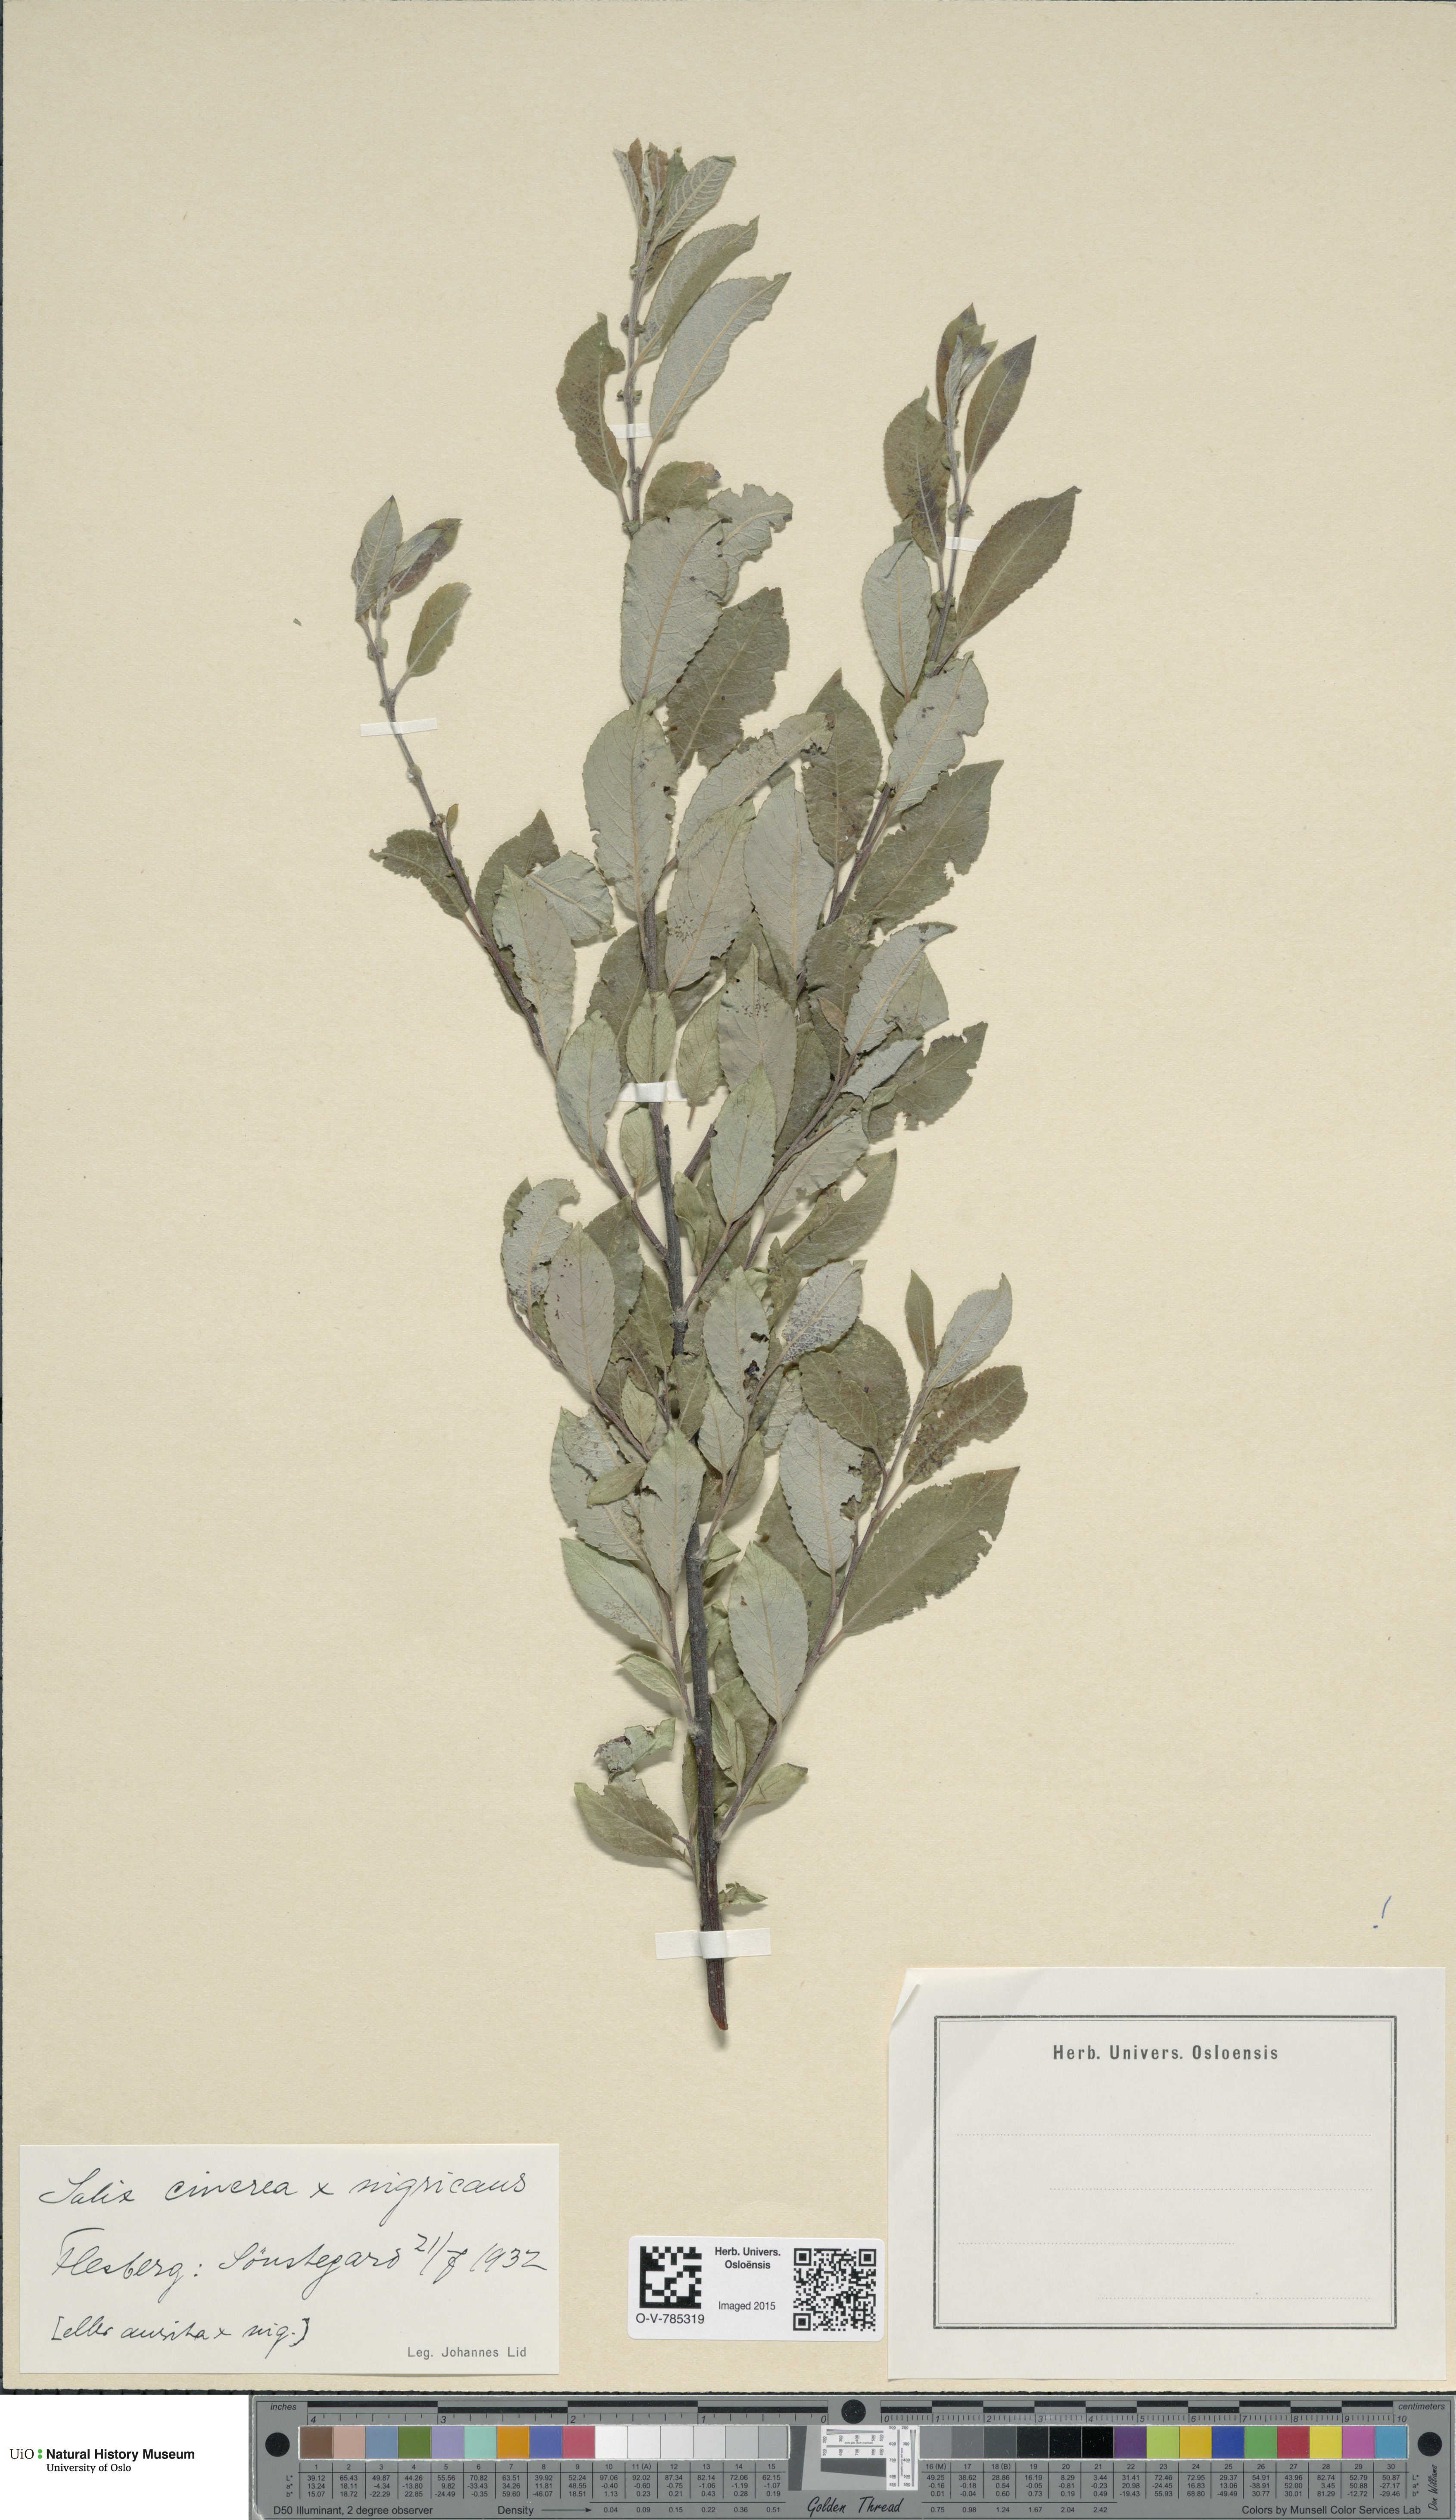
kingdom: Plantae
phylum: Tracheophyta
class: Magnoliopsida
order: Malpighiales
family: Salicaceae
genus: Salix
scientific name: Salix
